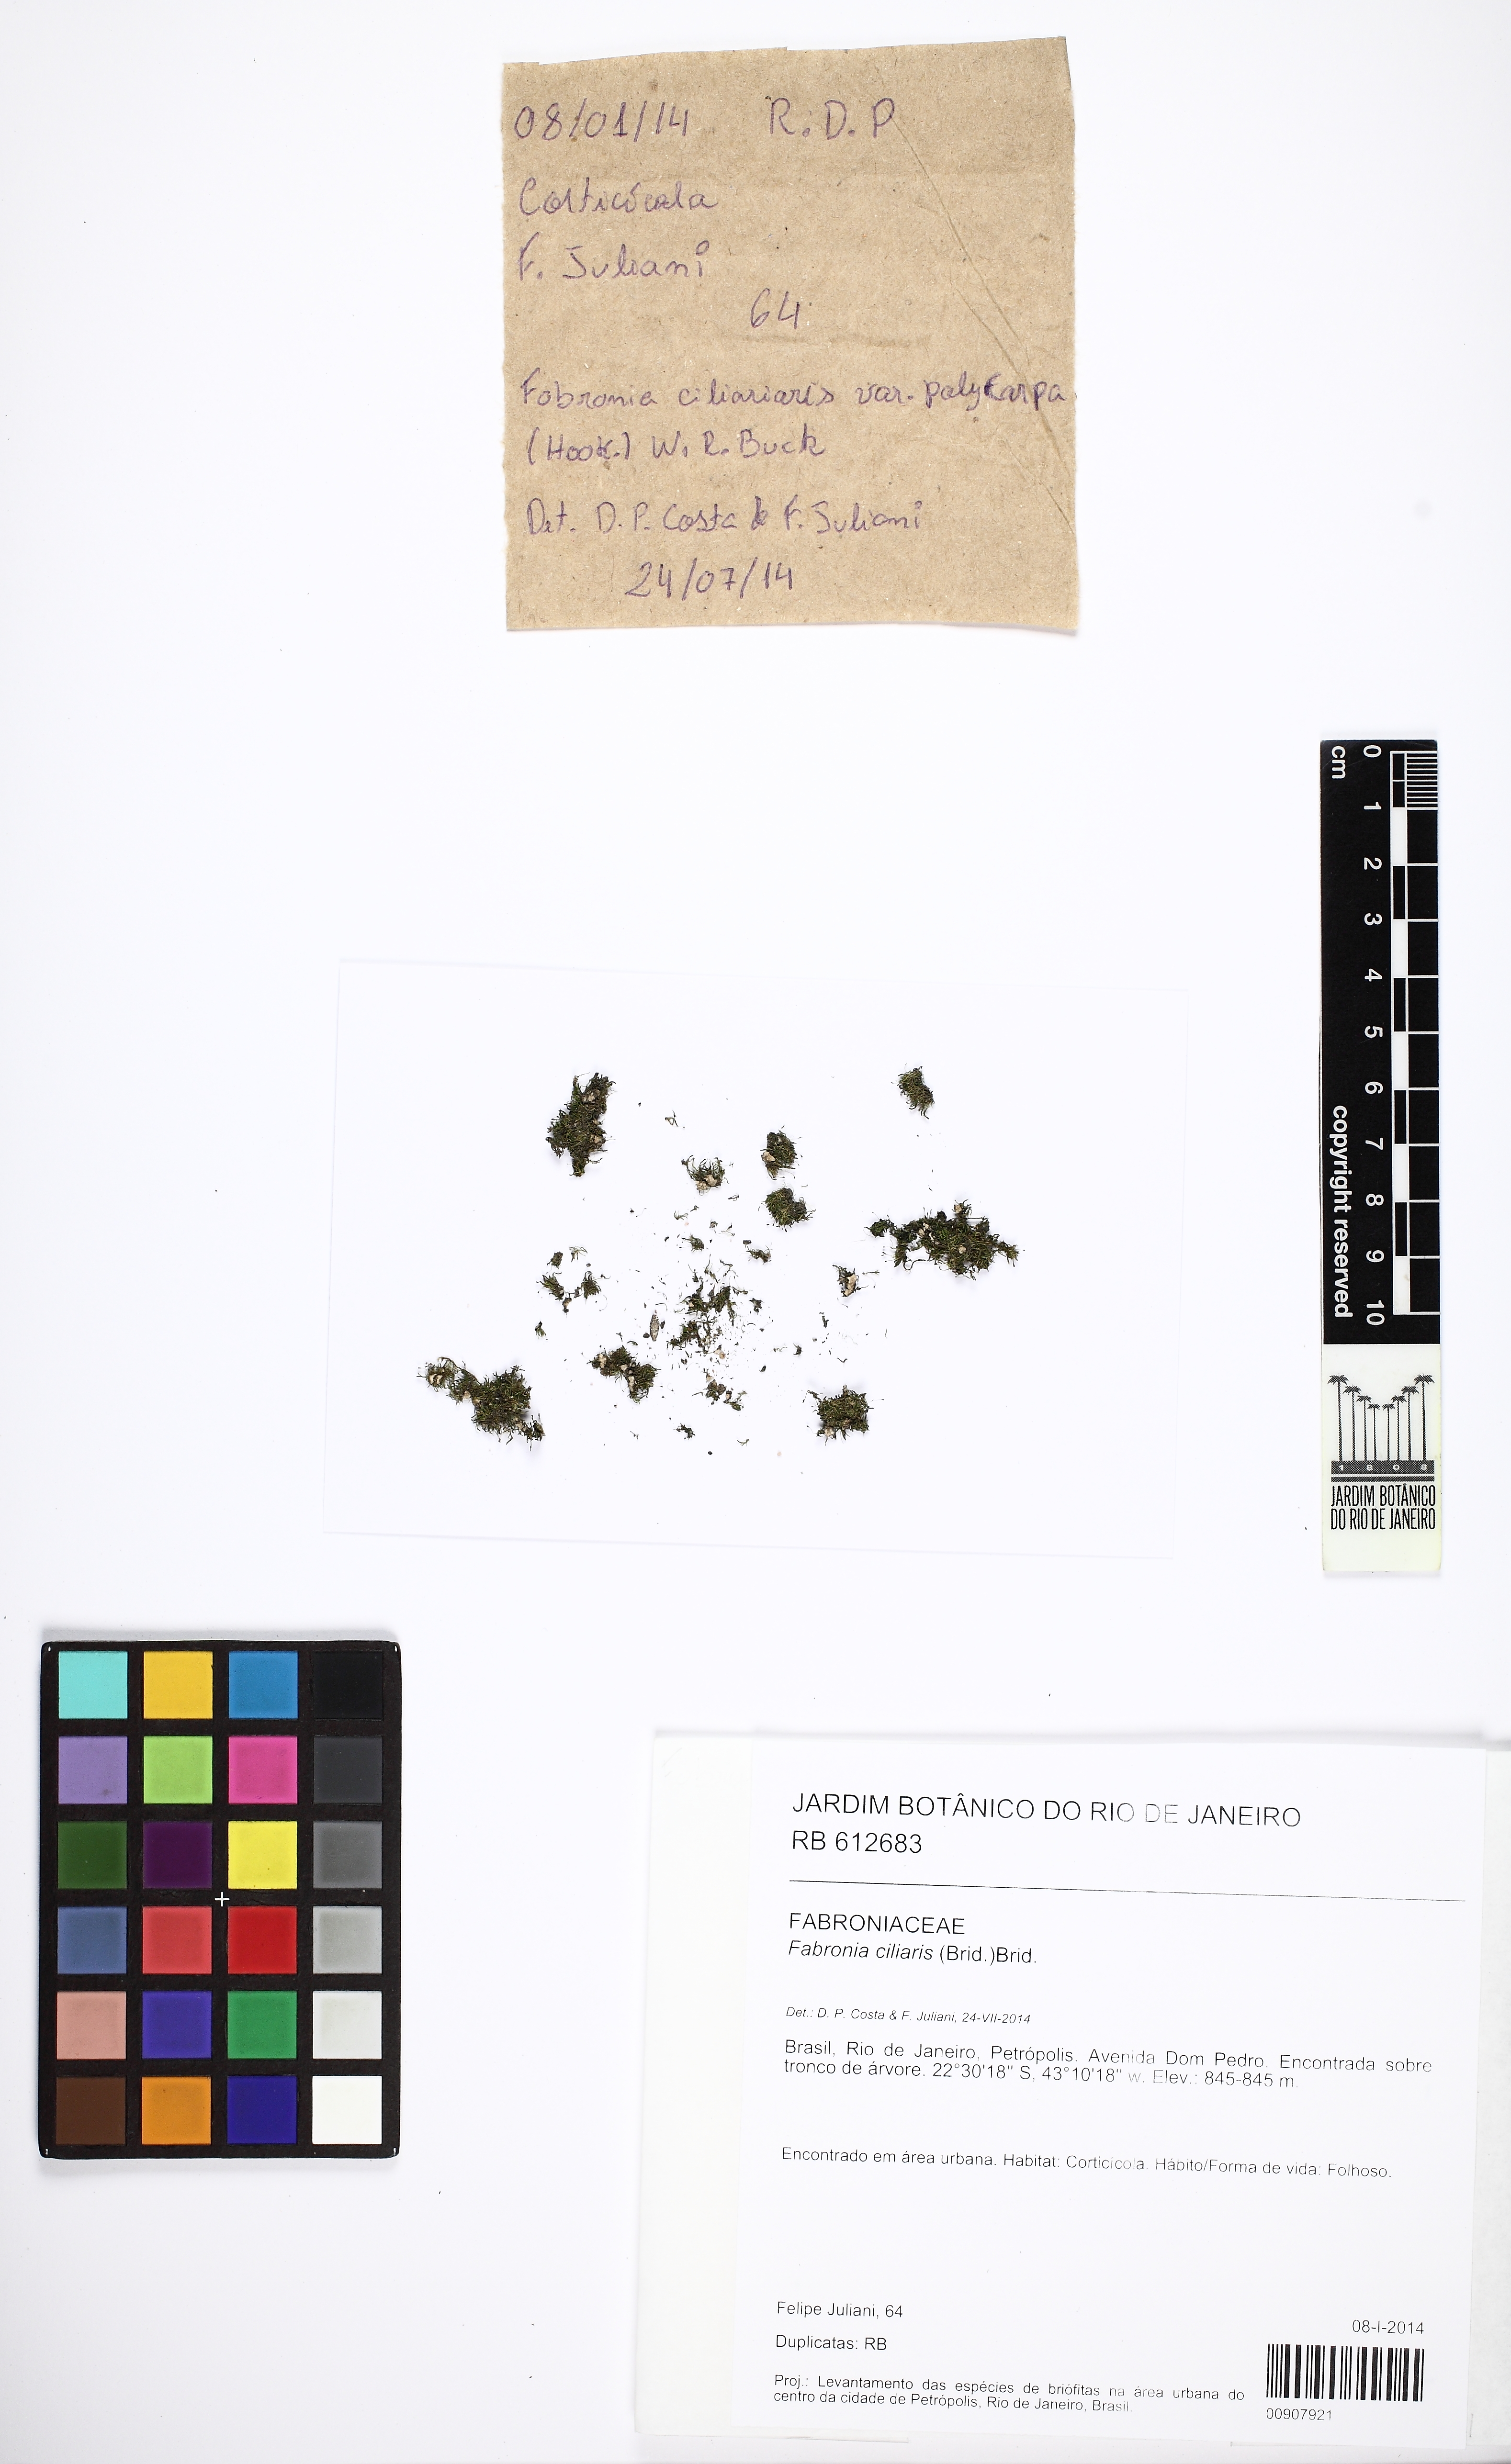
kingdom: Plantae
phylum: Bryophyta
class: Bryopsida
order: Hypnales
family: Fabroniaceae
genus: Fabronia
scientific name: Fabronia ciliaris
